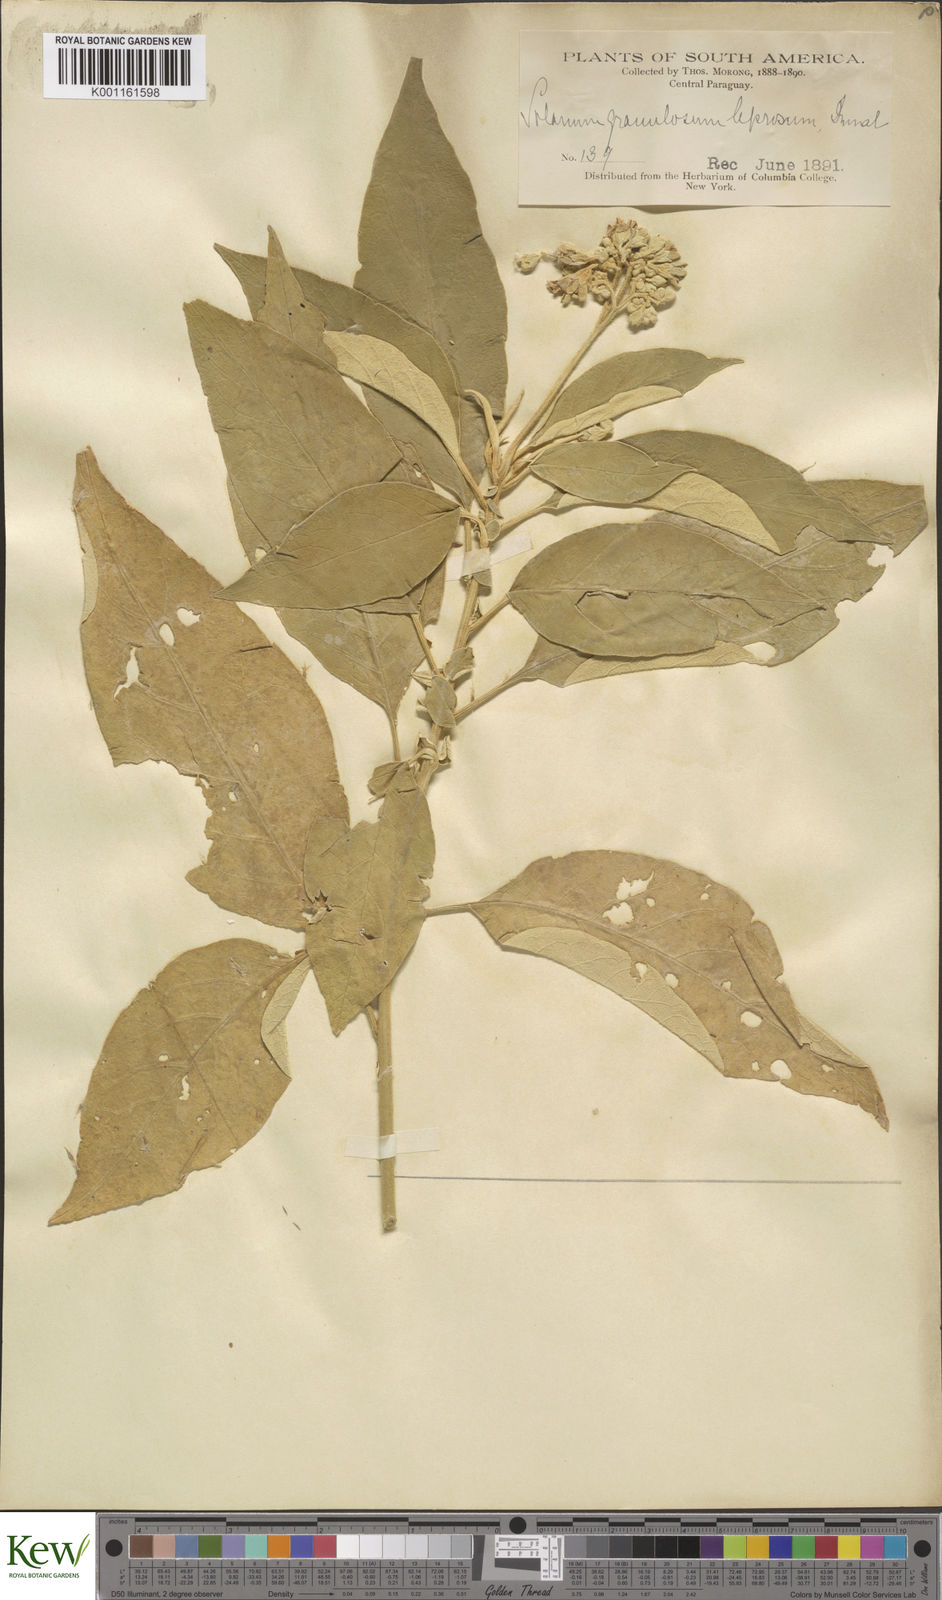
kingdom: Plantae
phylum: Tracheophyta
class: Magnoliopsida
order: Solanales
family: Solanaceae
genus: Solanum
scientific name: Solanum granulosoleprosum
